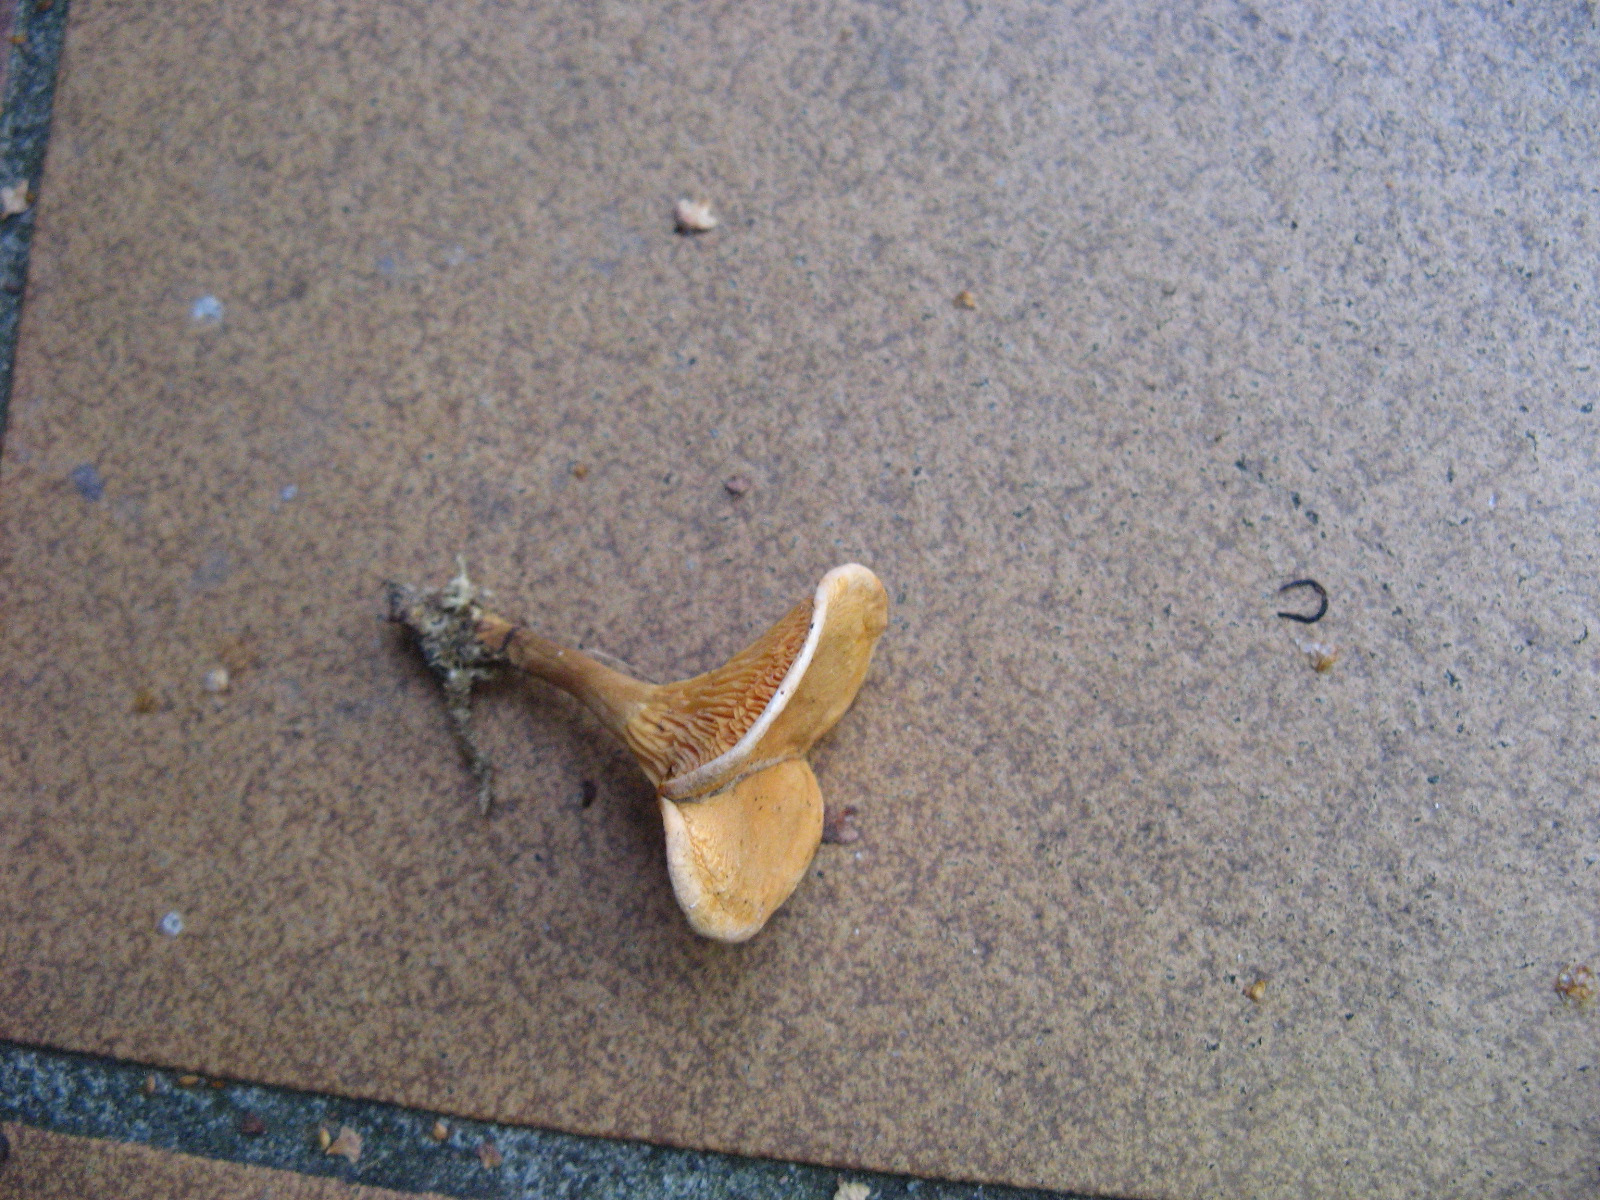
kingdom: Fungi
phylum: Basidiomycota
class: Agaricomycetes
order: Boletales
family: Hygrophoropsidaceae
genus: Hygrophoropsis
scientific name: Hygrophoropsis aurantiaca
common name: almindelig orangekantarel
